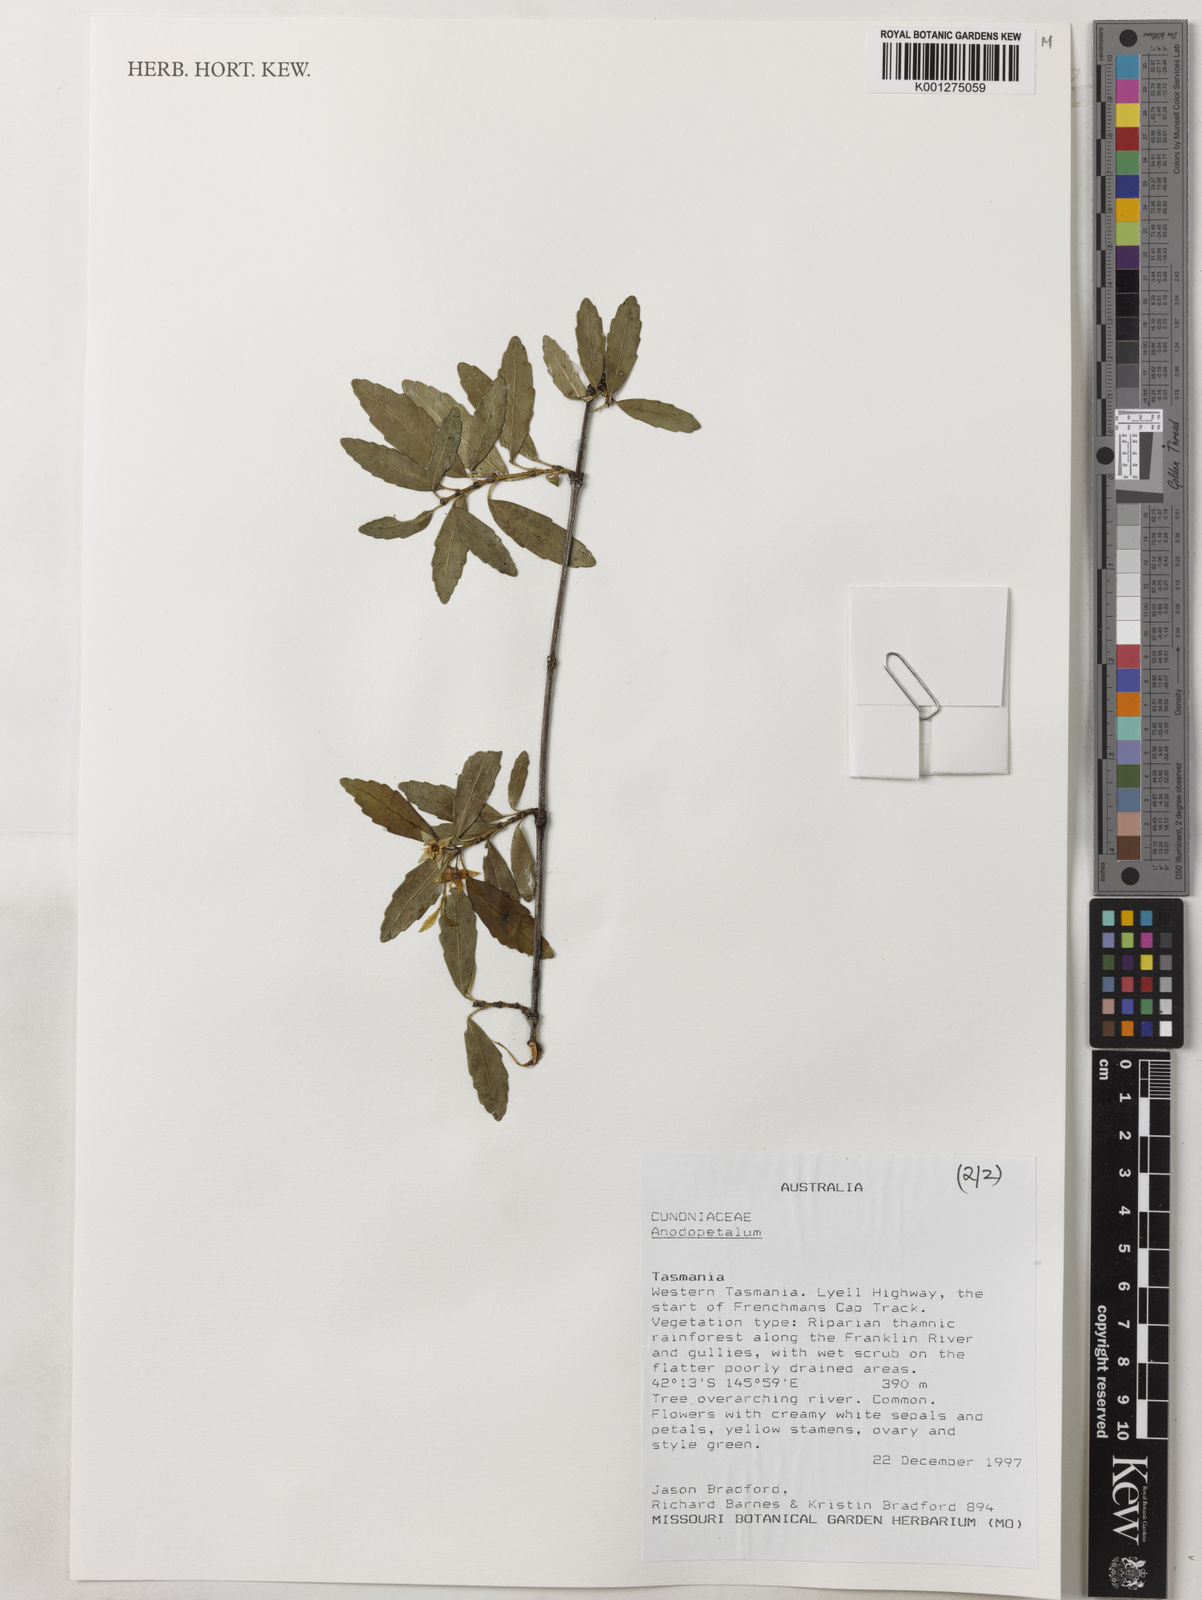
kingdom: Plantae
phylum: Tracheophyta
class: Magnoliopsida
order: Oxalidales
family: Cunoniaceae
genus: Anodopetalum
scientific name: Anodopetalum
